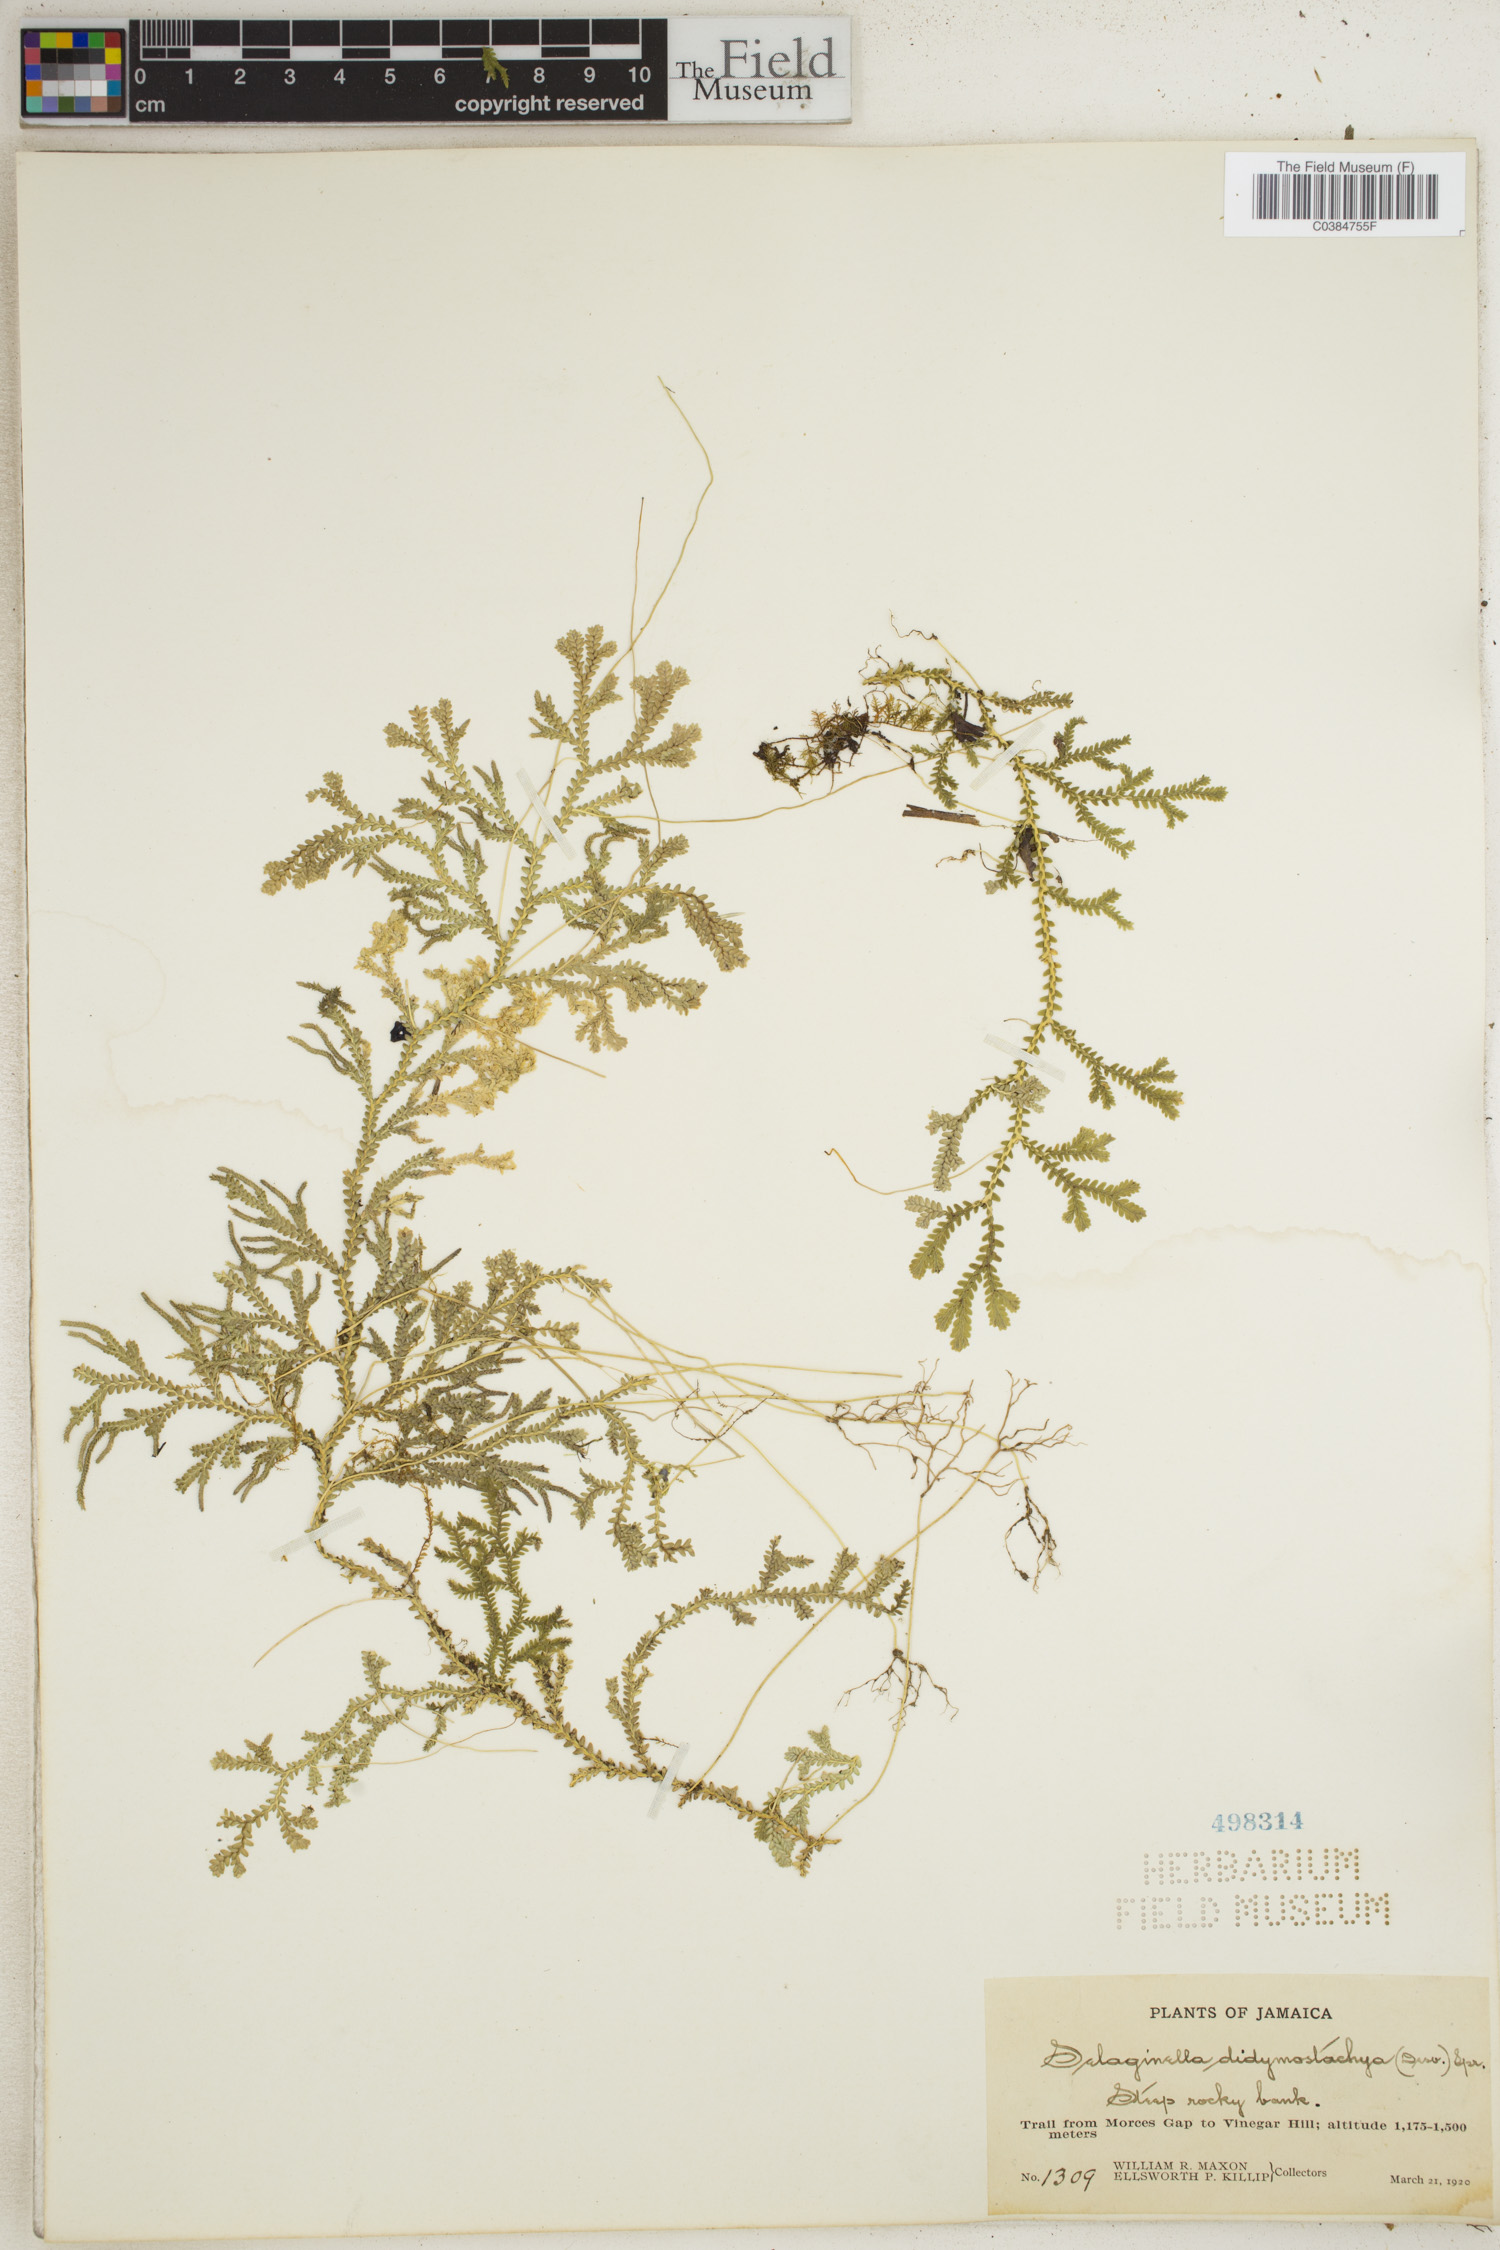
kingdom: Plantae
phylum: Tracheophyta
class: Lycopodiopsida
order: Selaginellales
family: Selaginellaceae
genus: Selaginella
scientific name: Selaginella denudata
